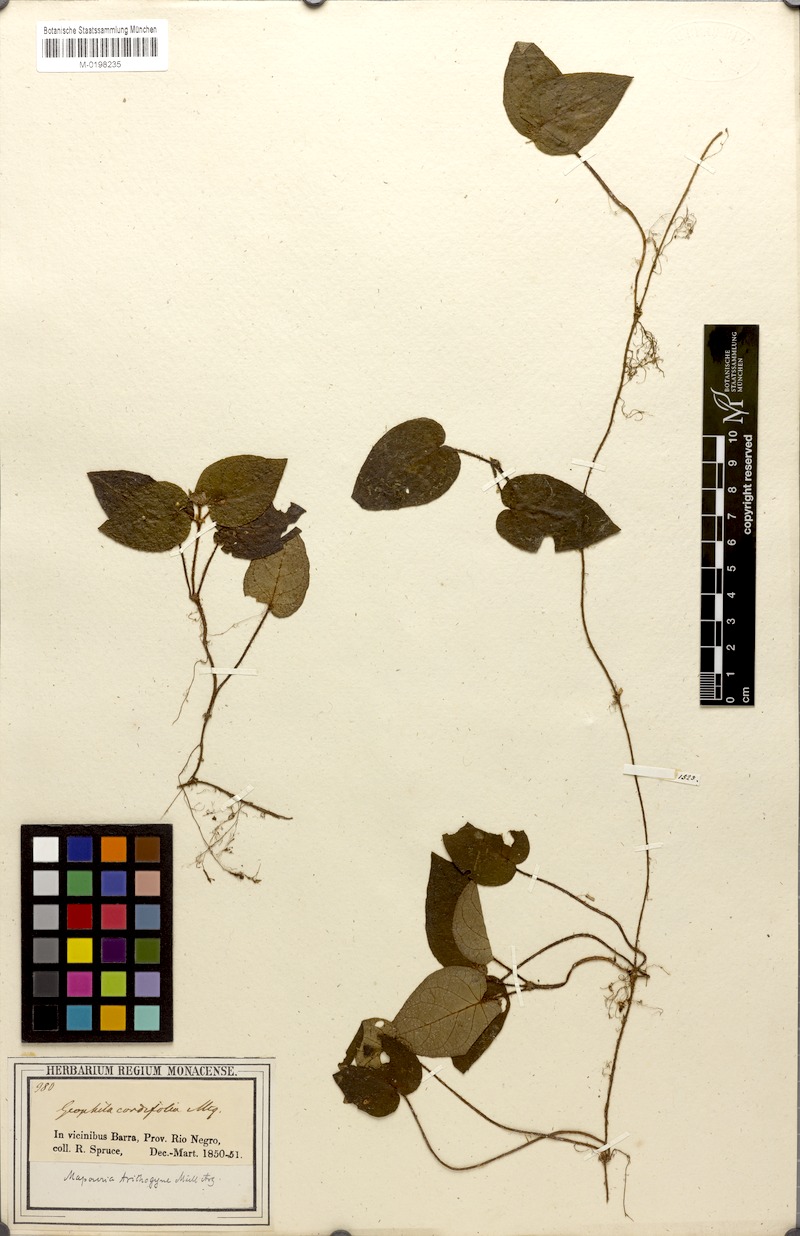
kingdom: Plantae
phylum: Tracheophyta
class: Magnoliopsida
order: Gentianales
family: Rubiaceae
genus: Geophila
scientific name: Geophila cordifolia
